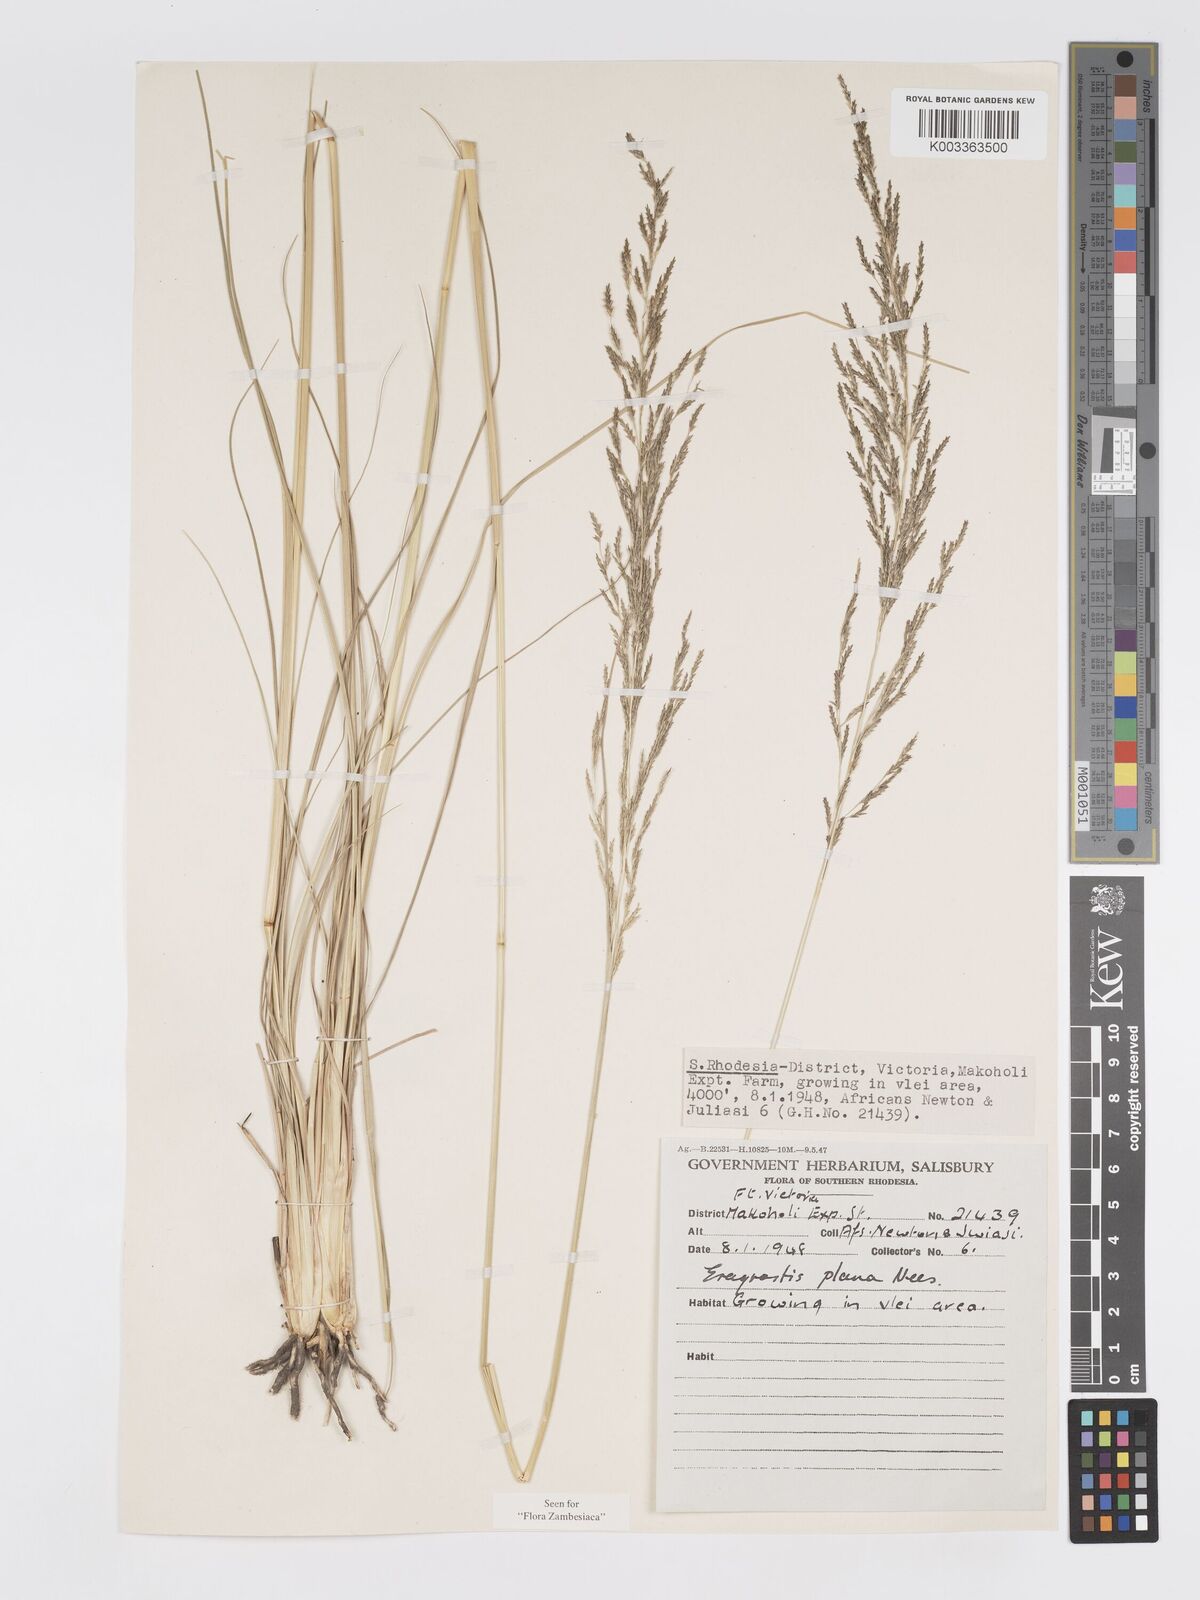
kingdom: Plantae
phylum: Tracheophyta
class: Liliopsida
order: Poales
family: Poaceae
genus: Eragrostis
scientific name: Eragrostis plana
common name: South african lovegrass
